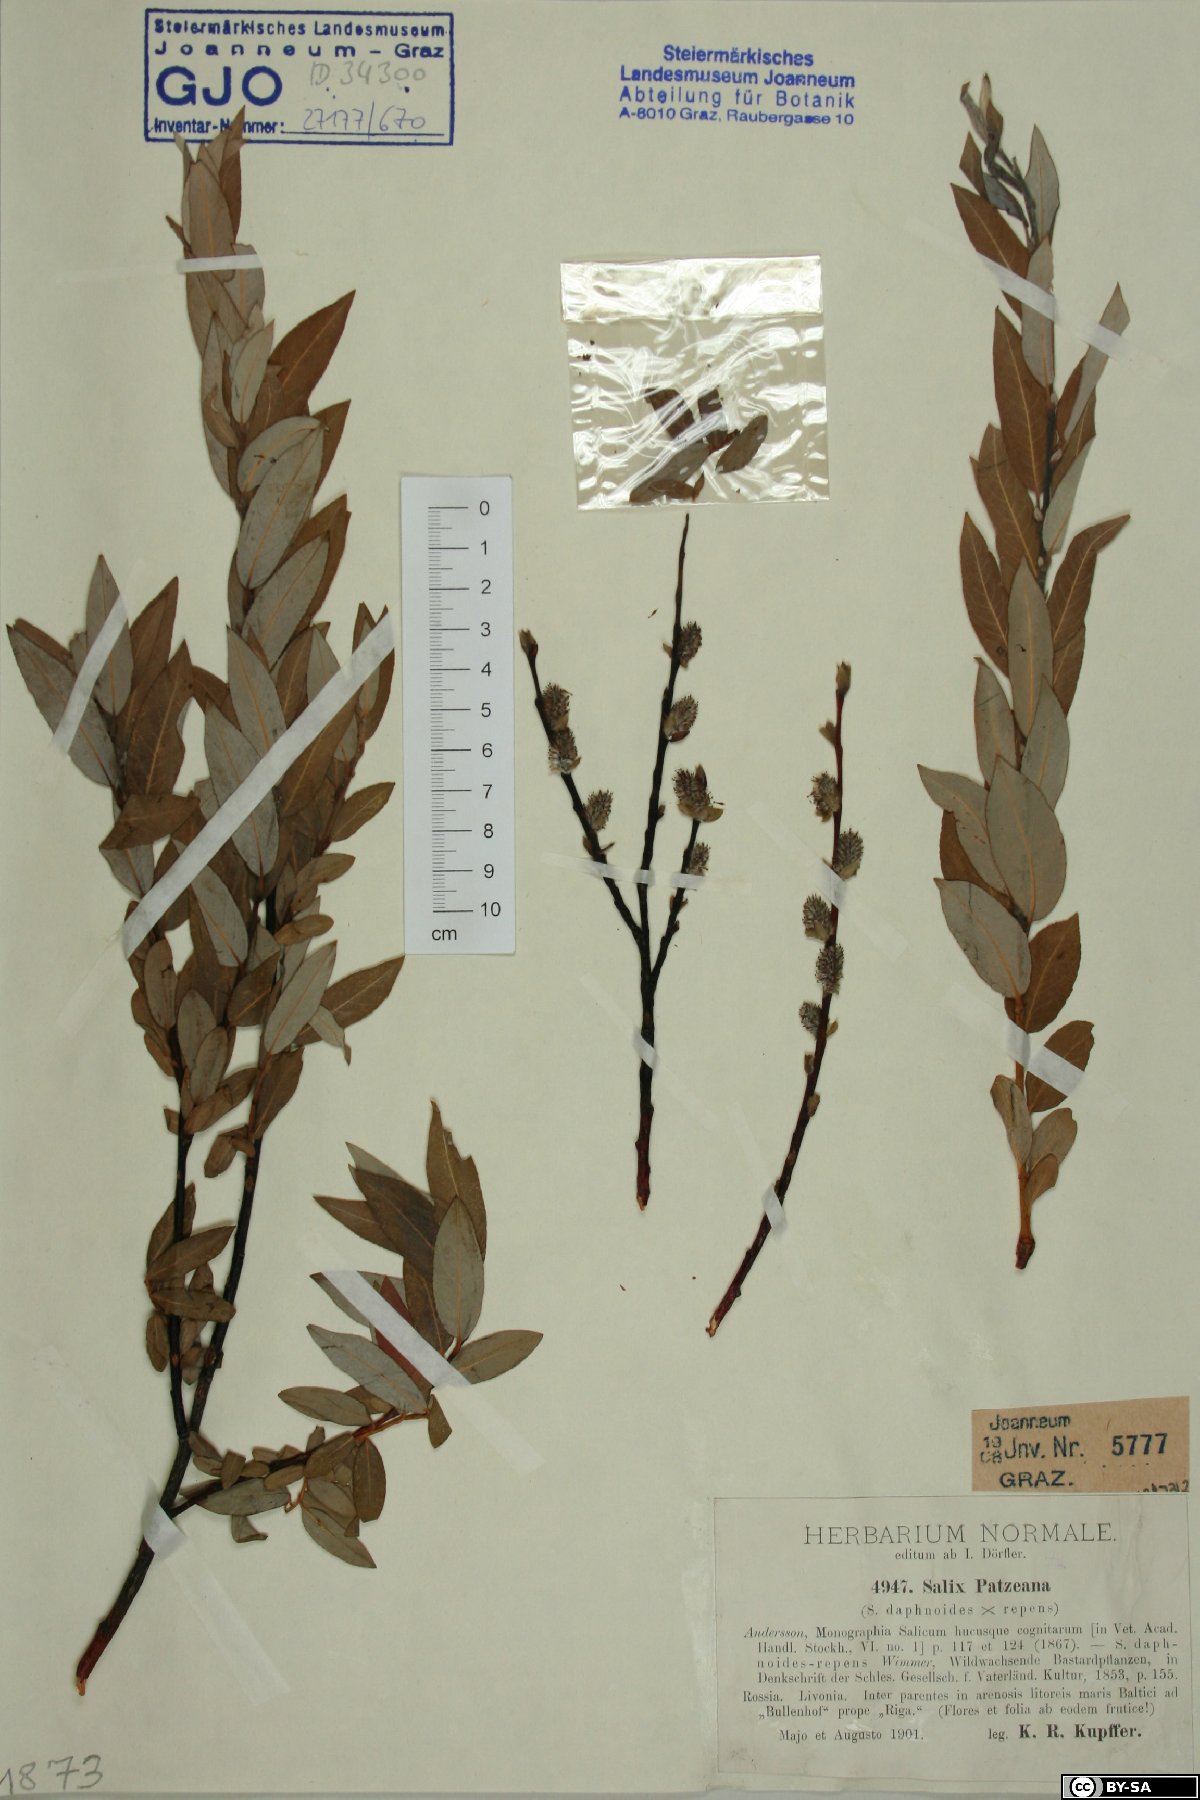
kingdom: Plantae
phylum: Tracheophyta
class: Magnoliopsida
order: Malpighiales
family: Salicaceae
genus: Salix
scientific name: Salix repens
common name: Creeping willow
